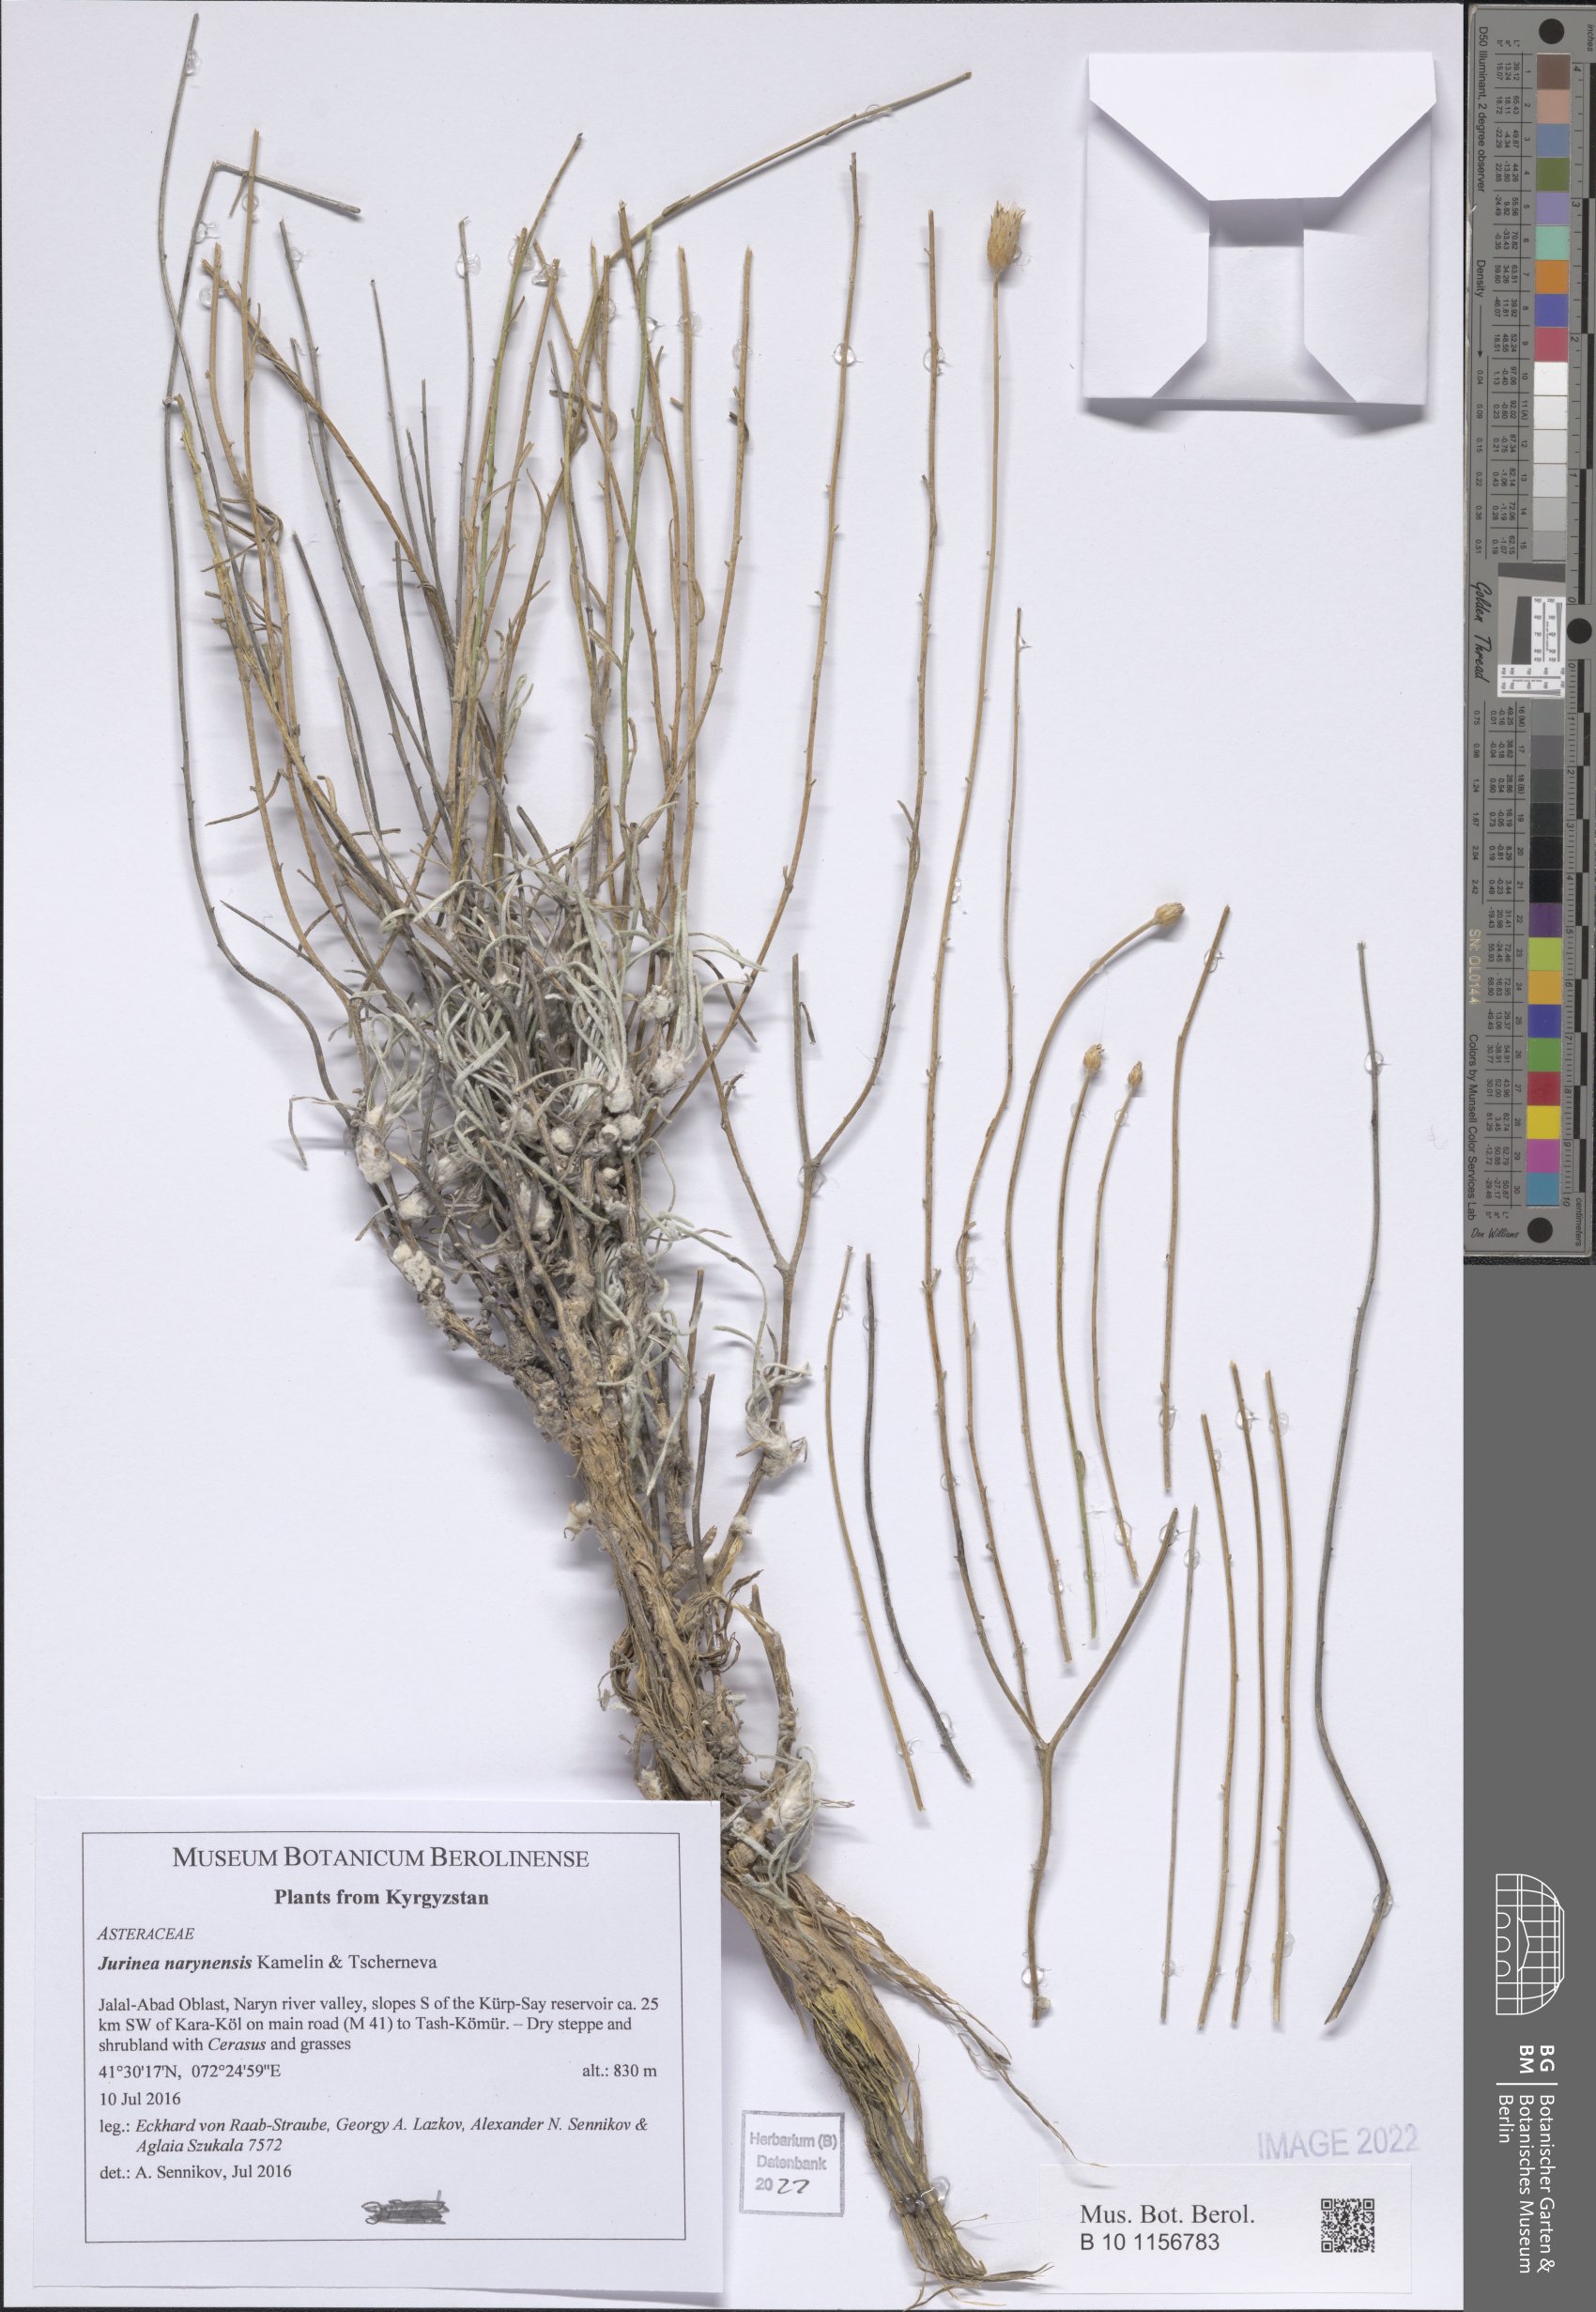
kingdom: Plantae
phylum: Tracheophyta
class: Magnoliopsida
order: Asterales
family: Asteraceae
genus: Jurinea
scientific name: Jurinea narynensis
